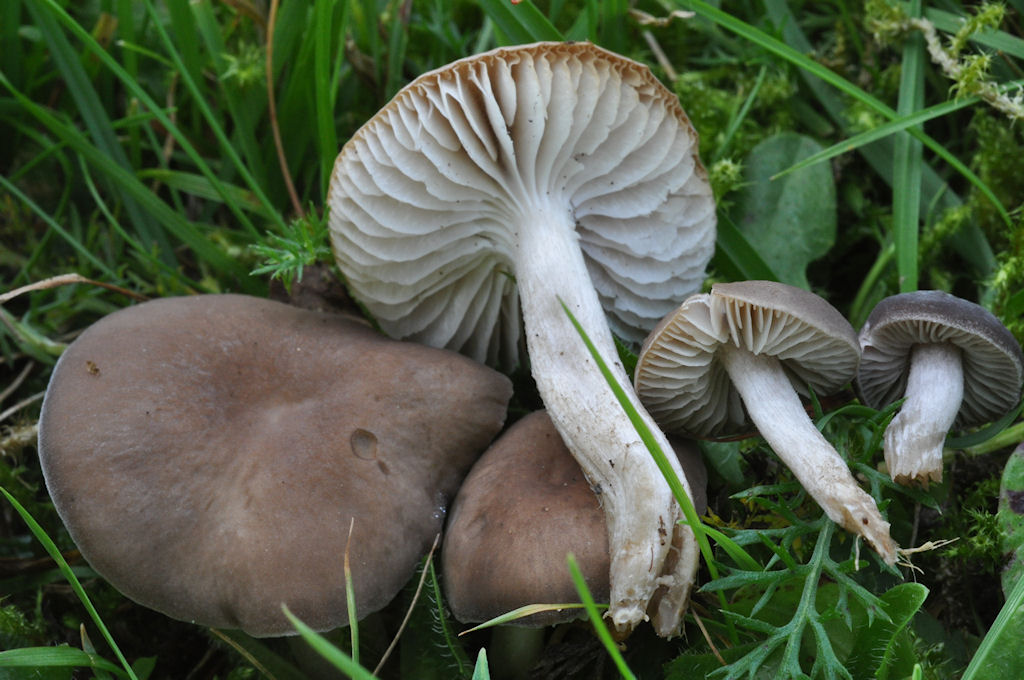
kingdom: Fungi
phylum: Basidiomycota
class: Agaricomycetes
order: Agaricales
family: Tricholomataceae
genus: Dermoloma
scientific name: Dermoloma cuneifolium
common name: eng-nonnehat
